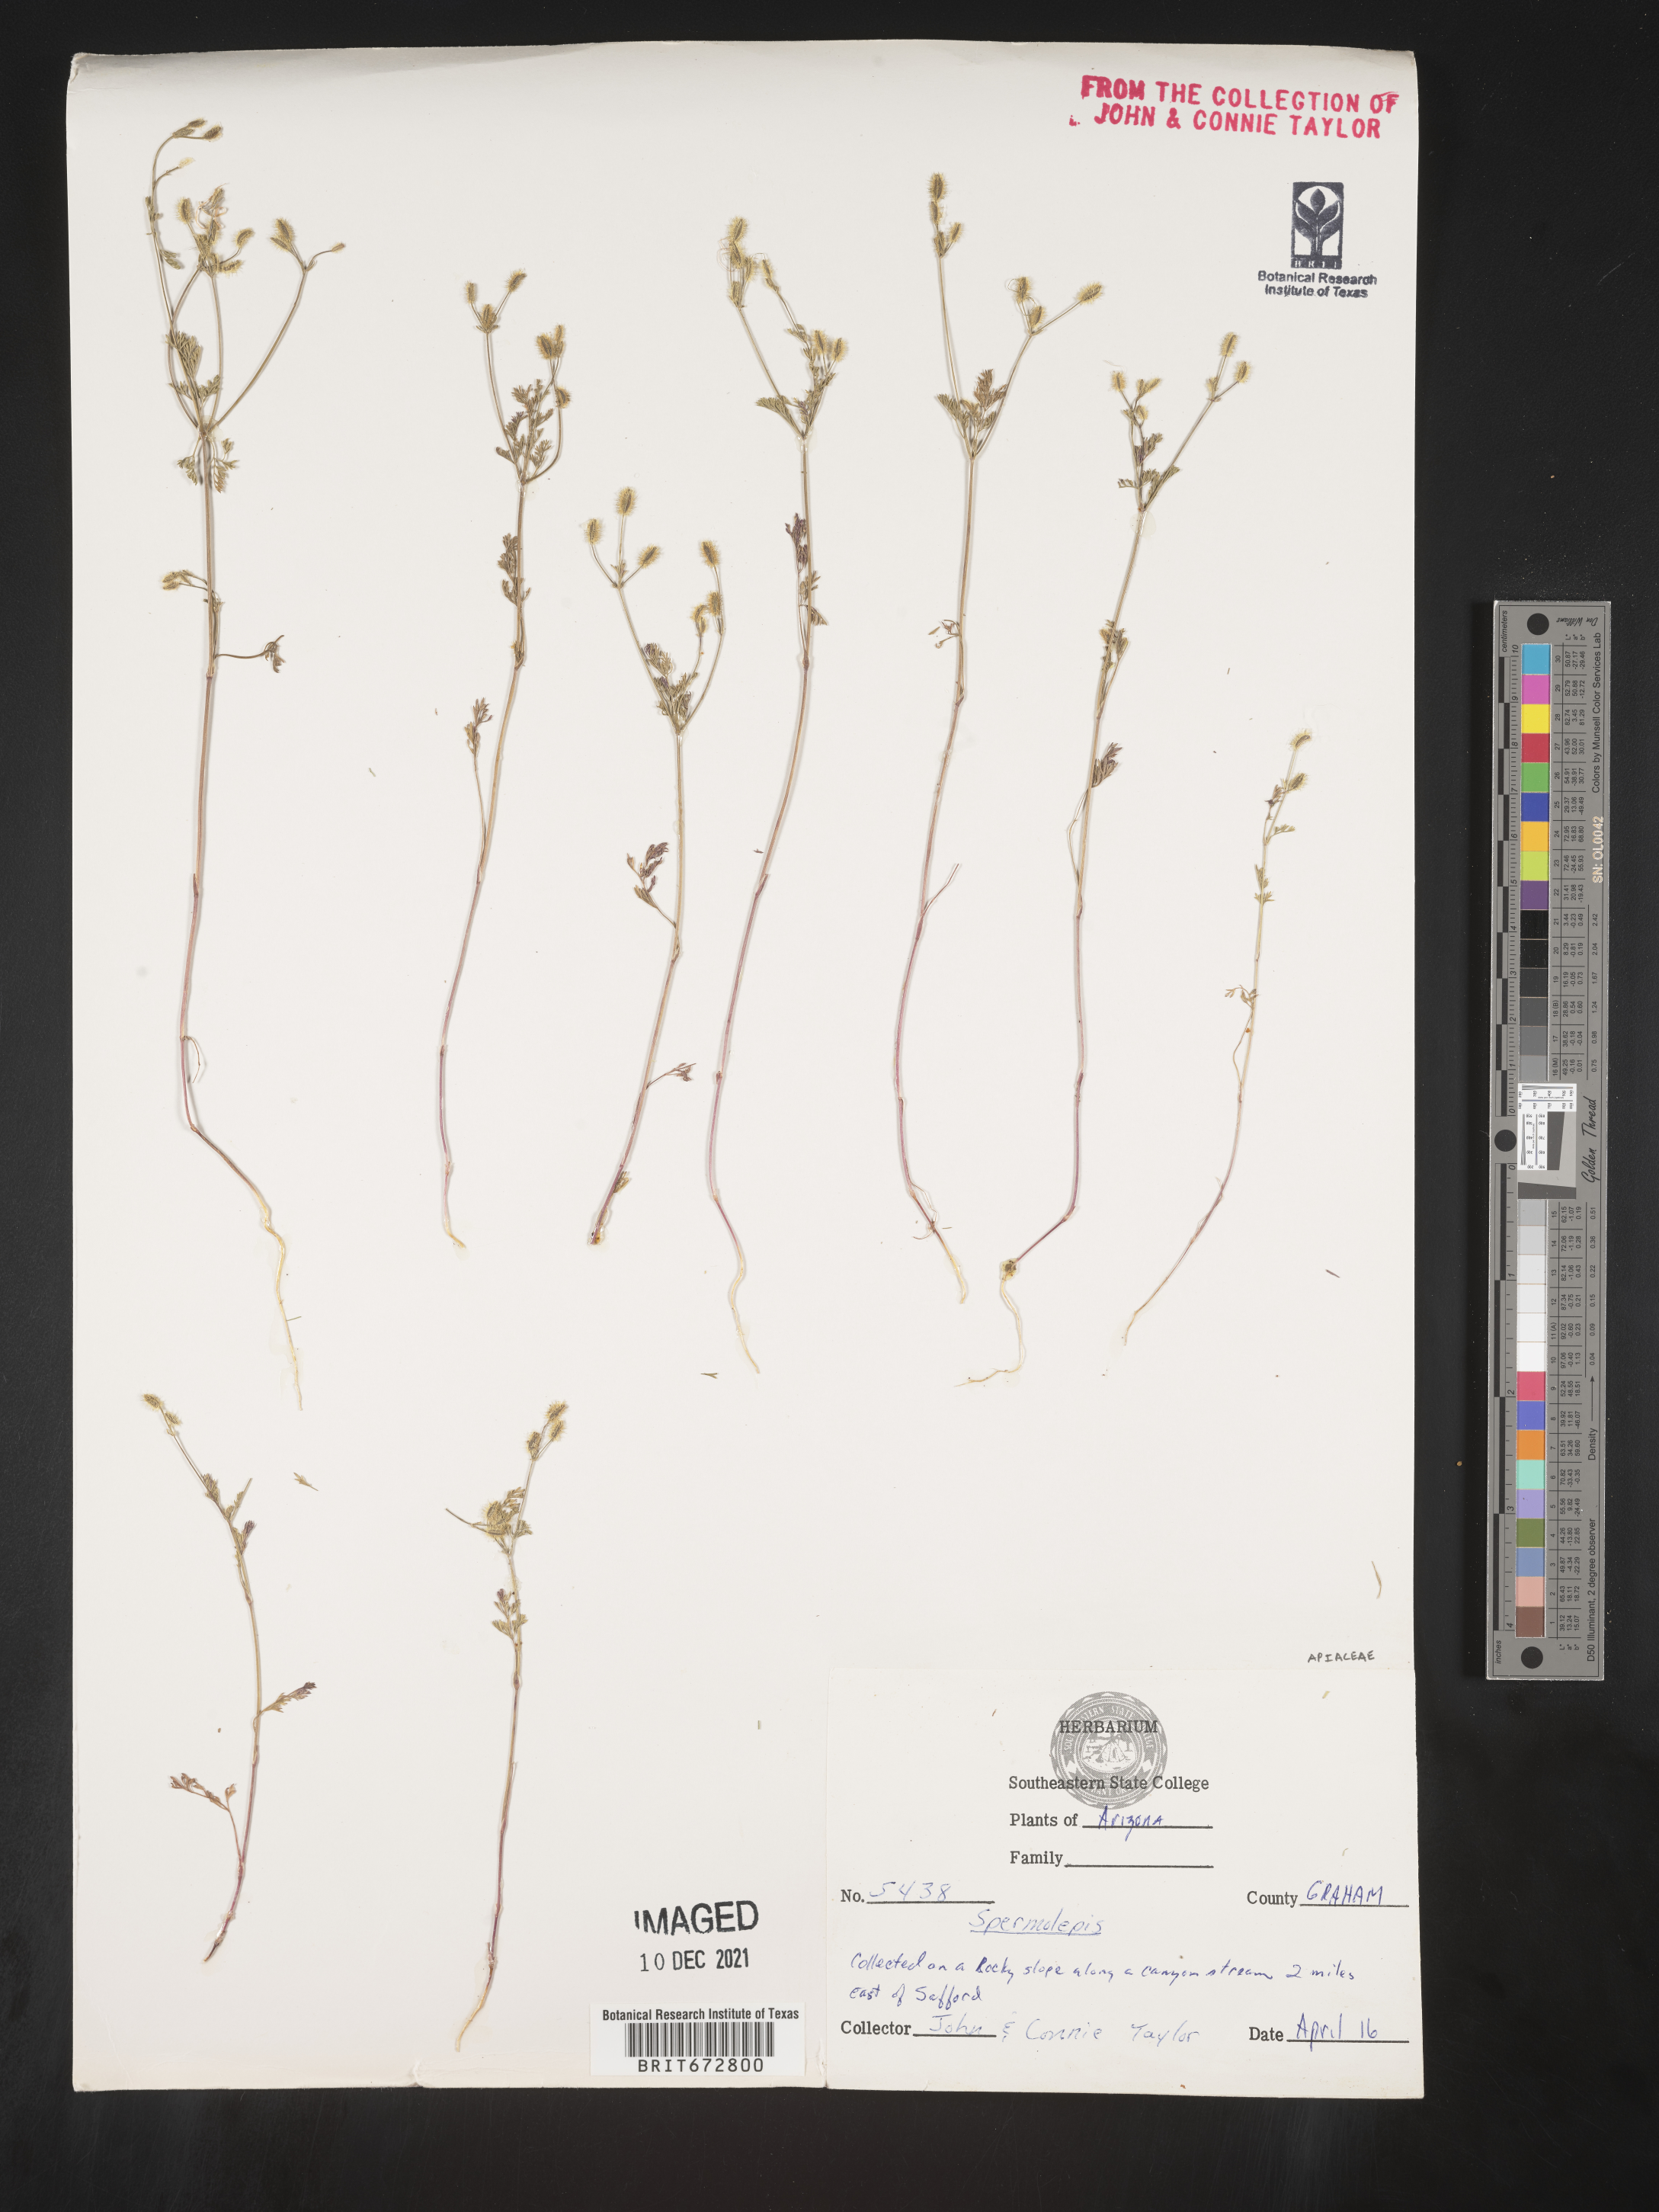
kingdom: Plantae
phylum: Tracheophyta
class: Magnoliopsida
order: Apiales
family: Apiaceae
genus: Spermolepis
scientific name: Spermolepis
